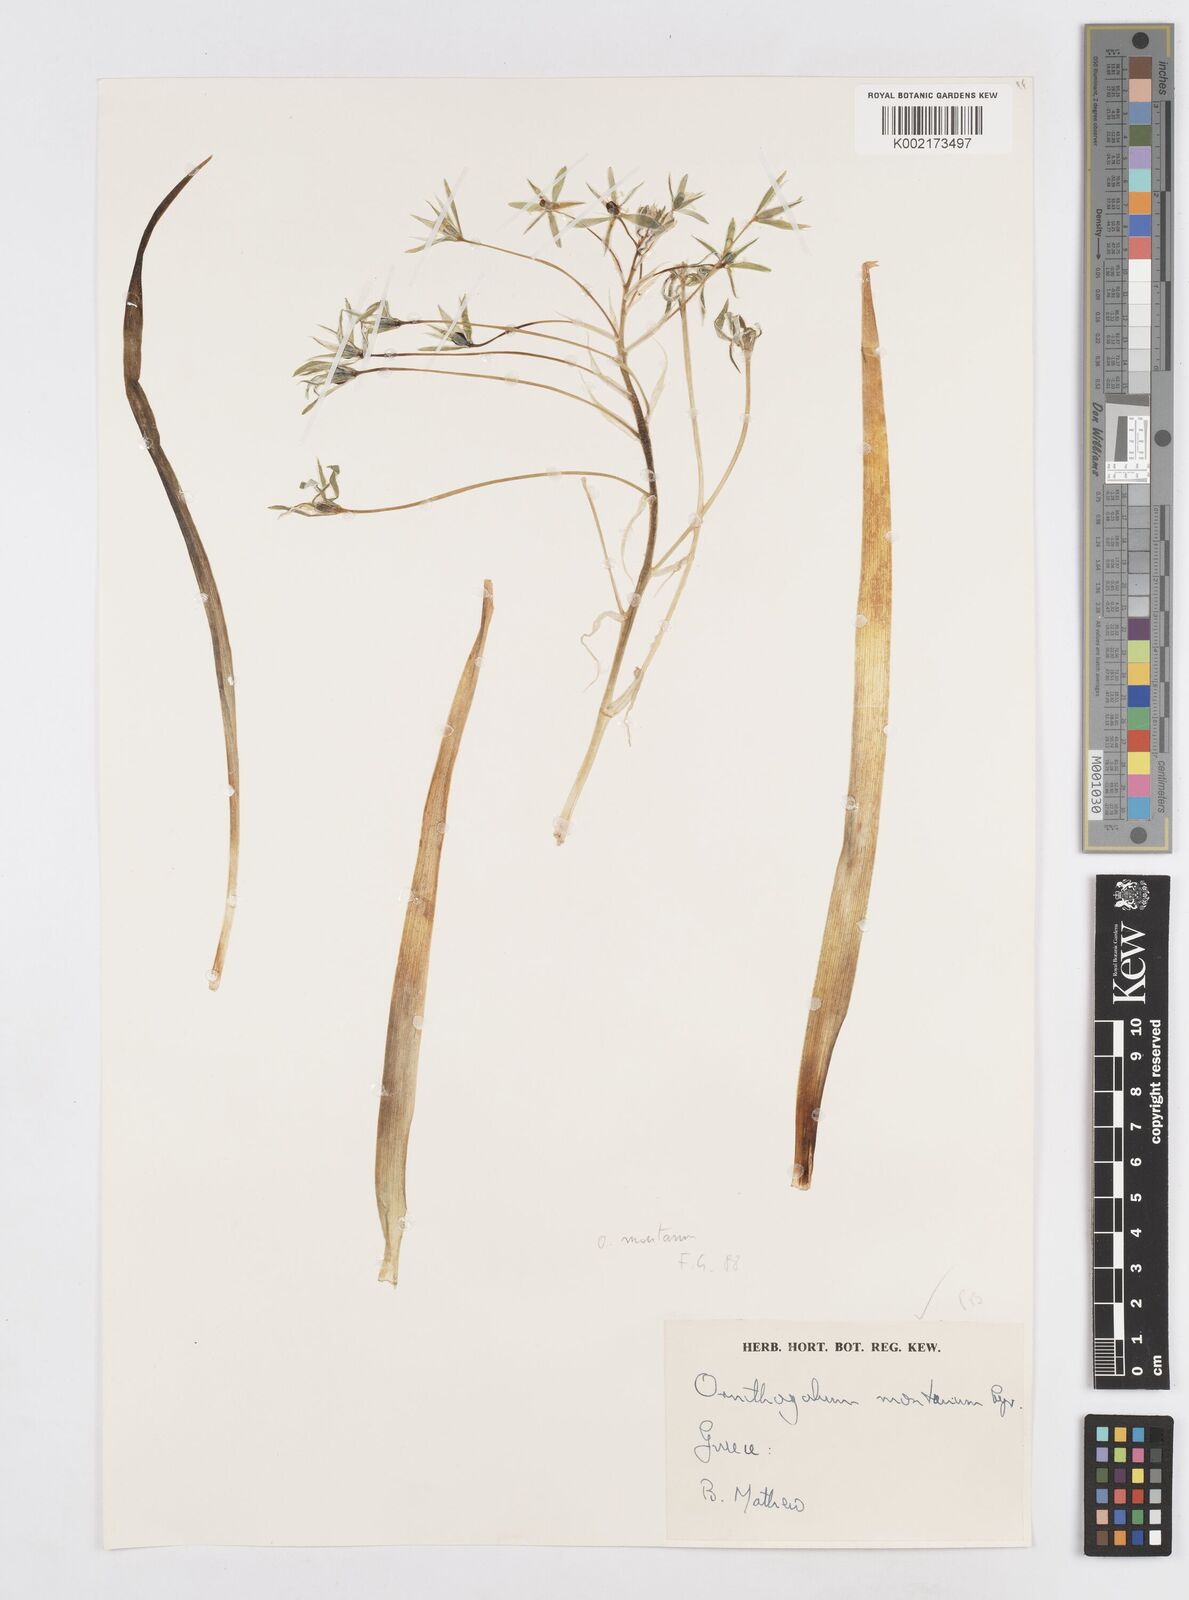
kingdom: Plantae
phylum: Tracheophyta
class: Liliopsida
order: Asparagales
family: Asparagaceae
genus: Ornithogalum
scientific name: Ornithogalum montanum
